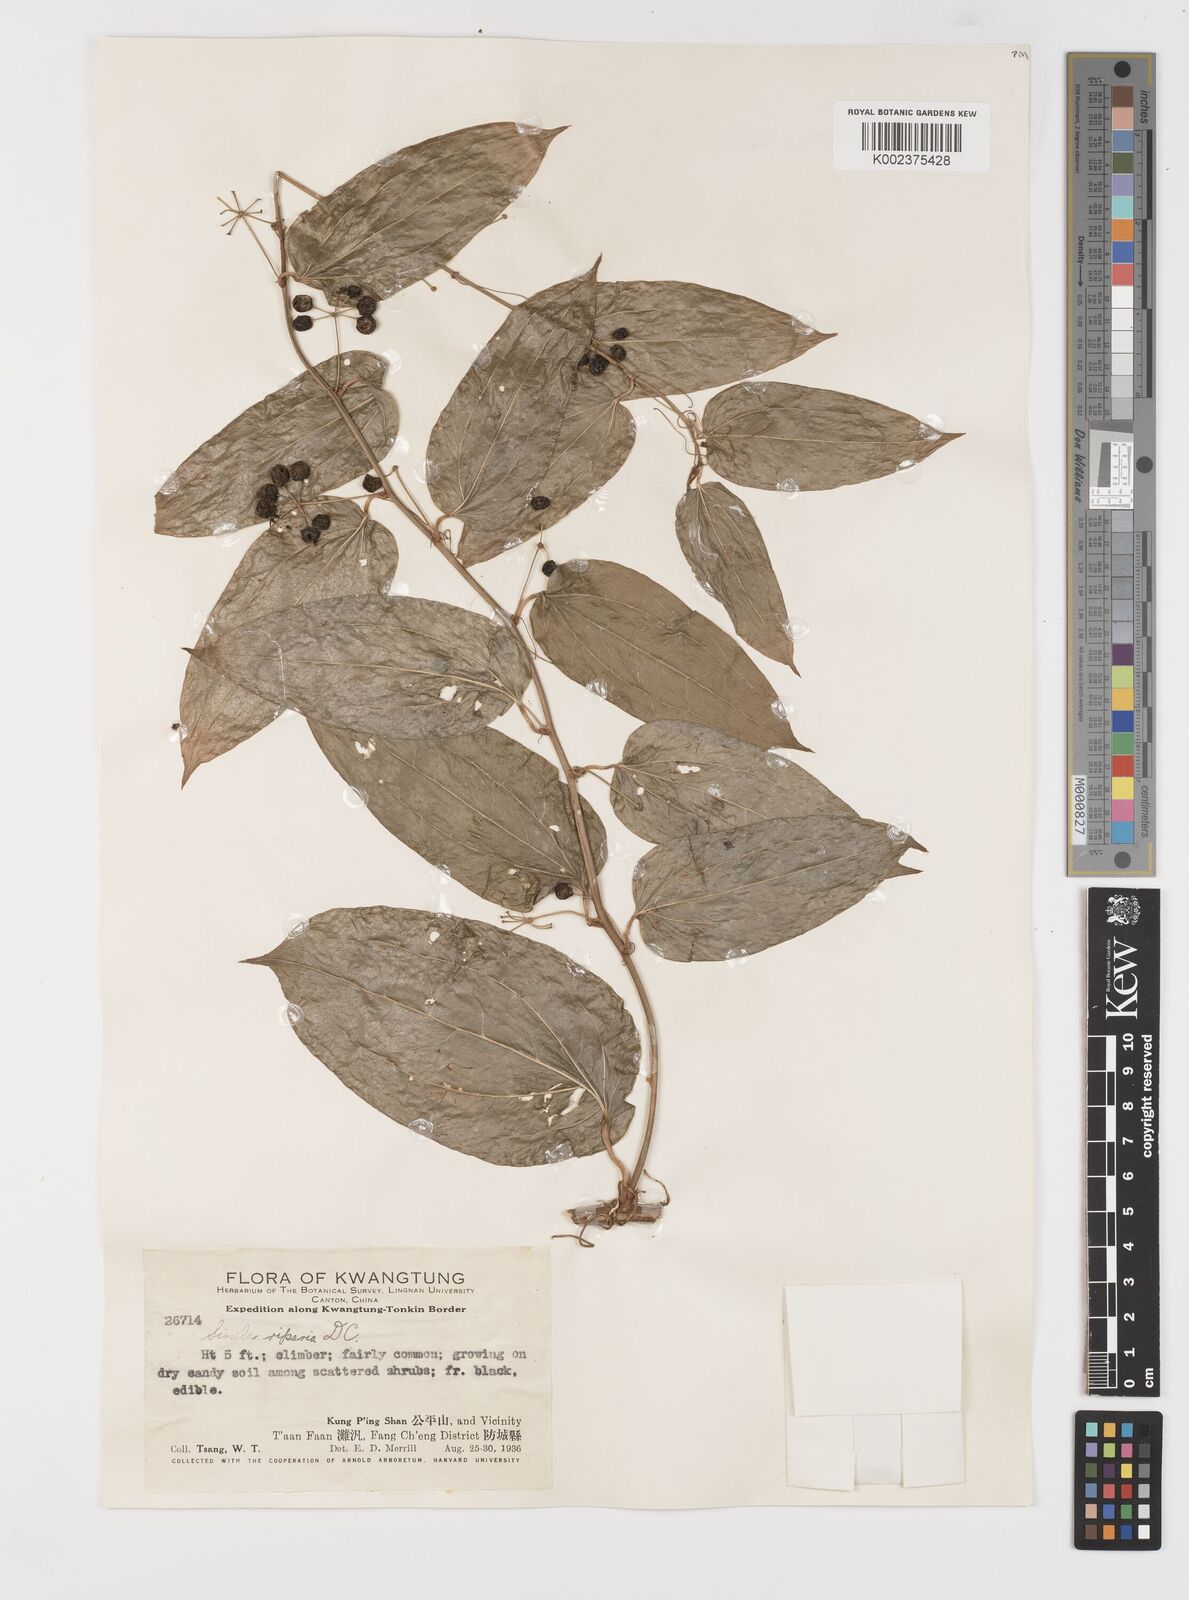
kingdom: Plantae
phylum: Tracheophyta
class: Liliopsida
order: Liliales
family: Smilacaceae
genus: Smilax
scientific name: Smilax riparia
